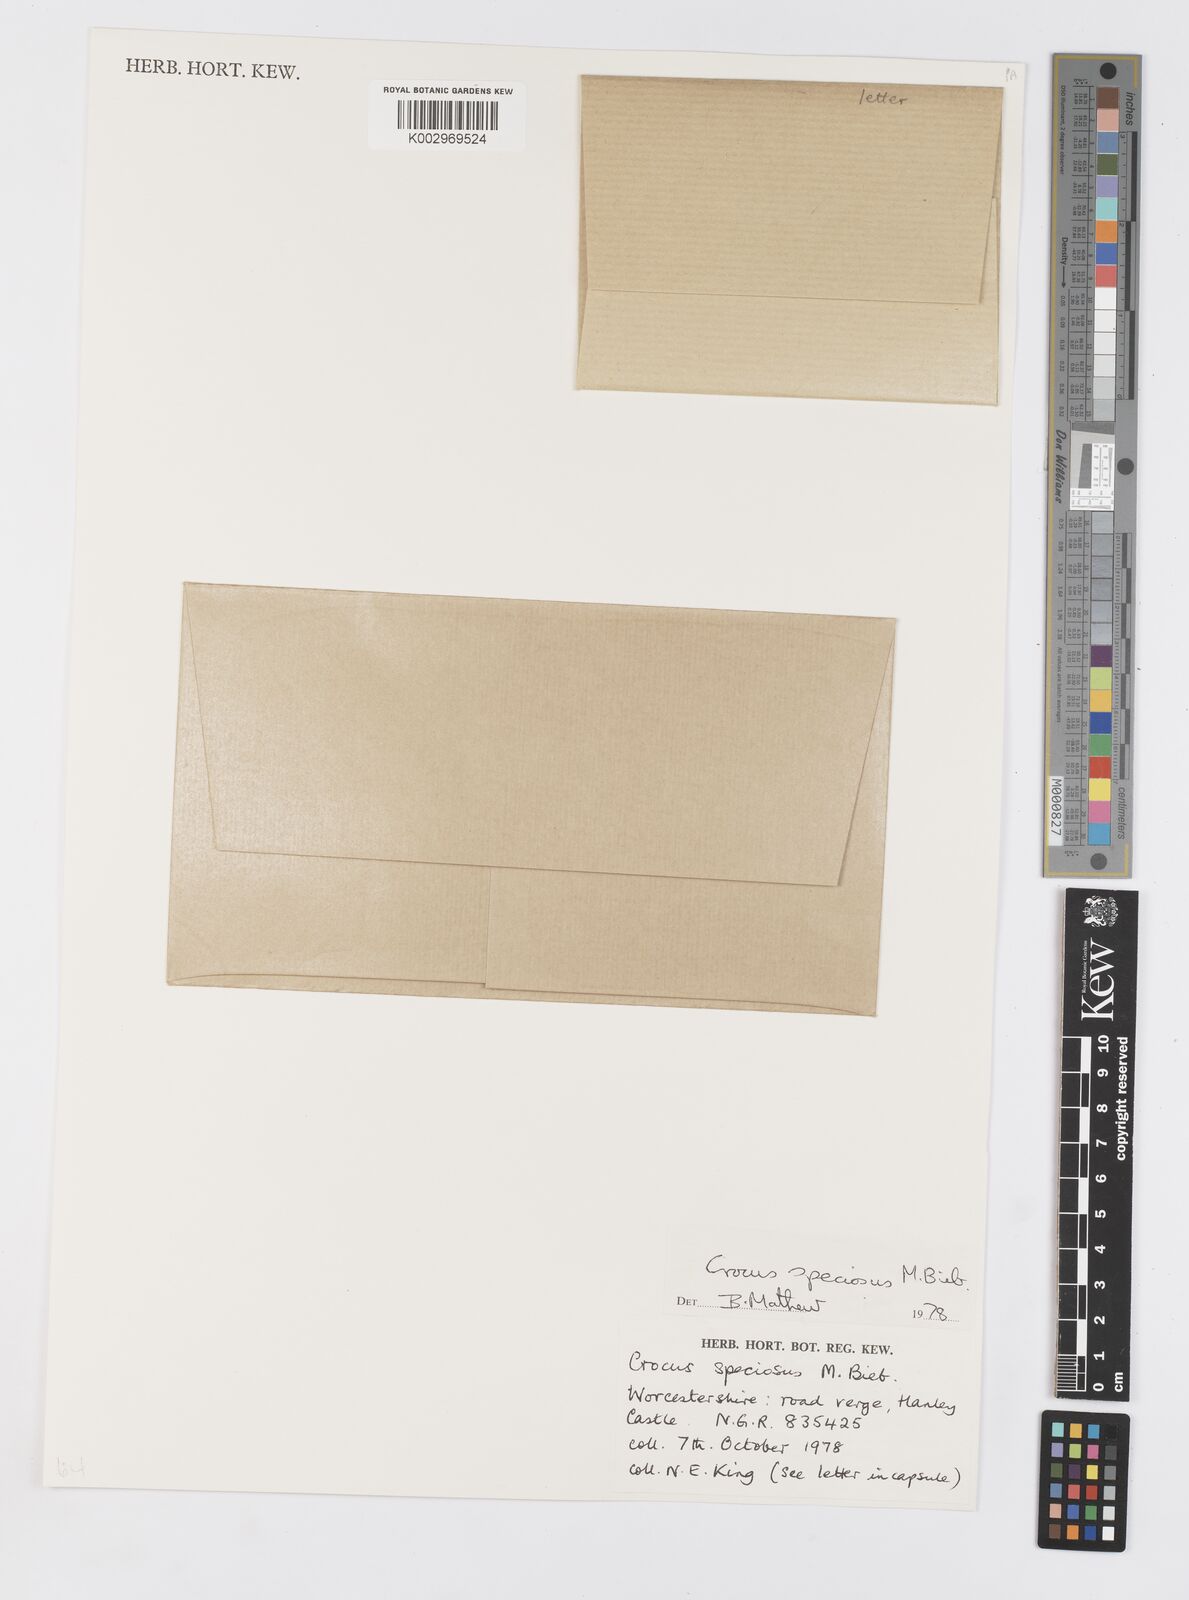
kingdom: Plantae
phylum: Tracheophyta
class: Liliopsida
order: Asparagales
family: Iridaceae
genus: Crocus
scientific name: Crocus speciosus
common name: Bieberstein's crocus
